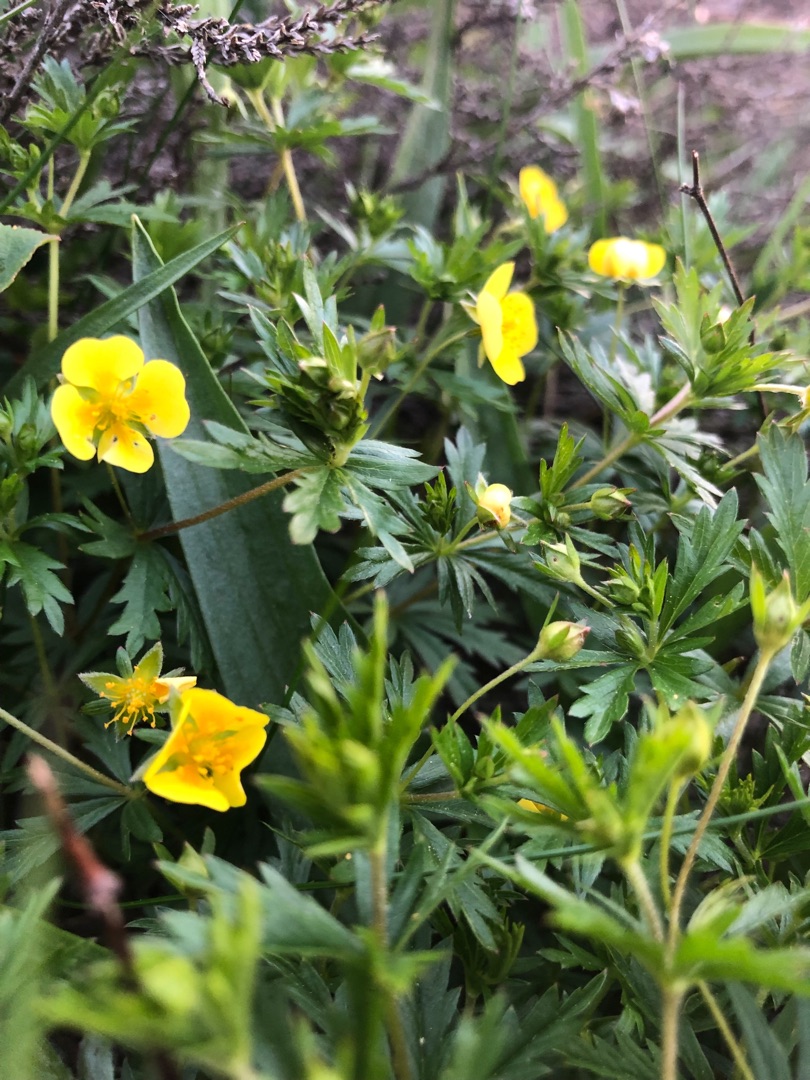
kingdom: Plantae
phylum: Tracheophyta
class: Magnoliopsida
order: Rosales
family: Rosaceae
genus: Potentilla
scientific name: Potentilla erecta
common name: Tormentil
